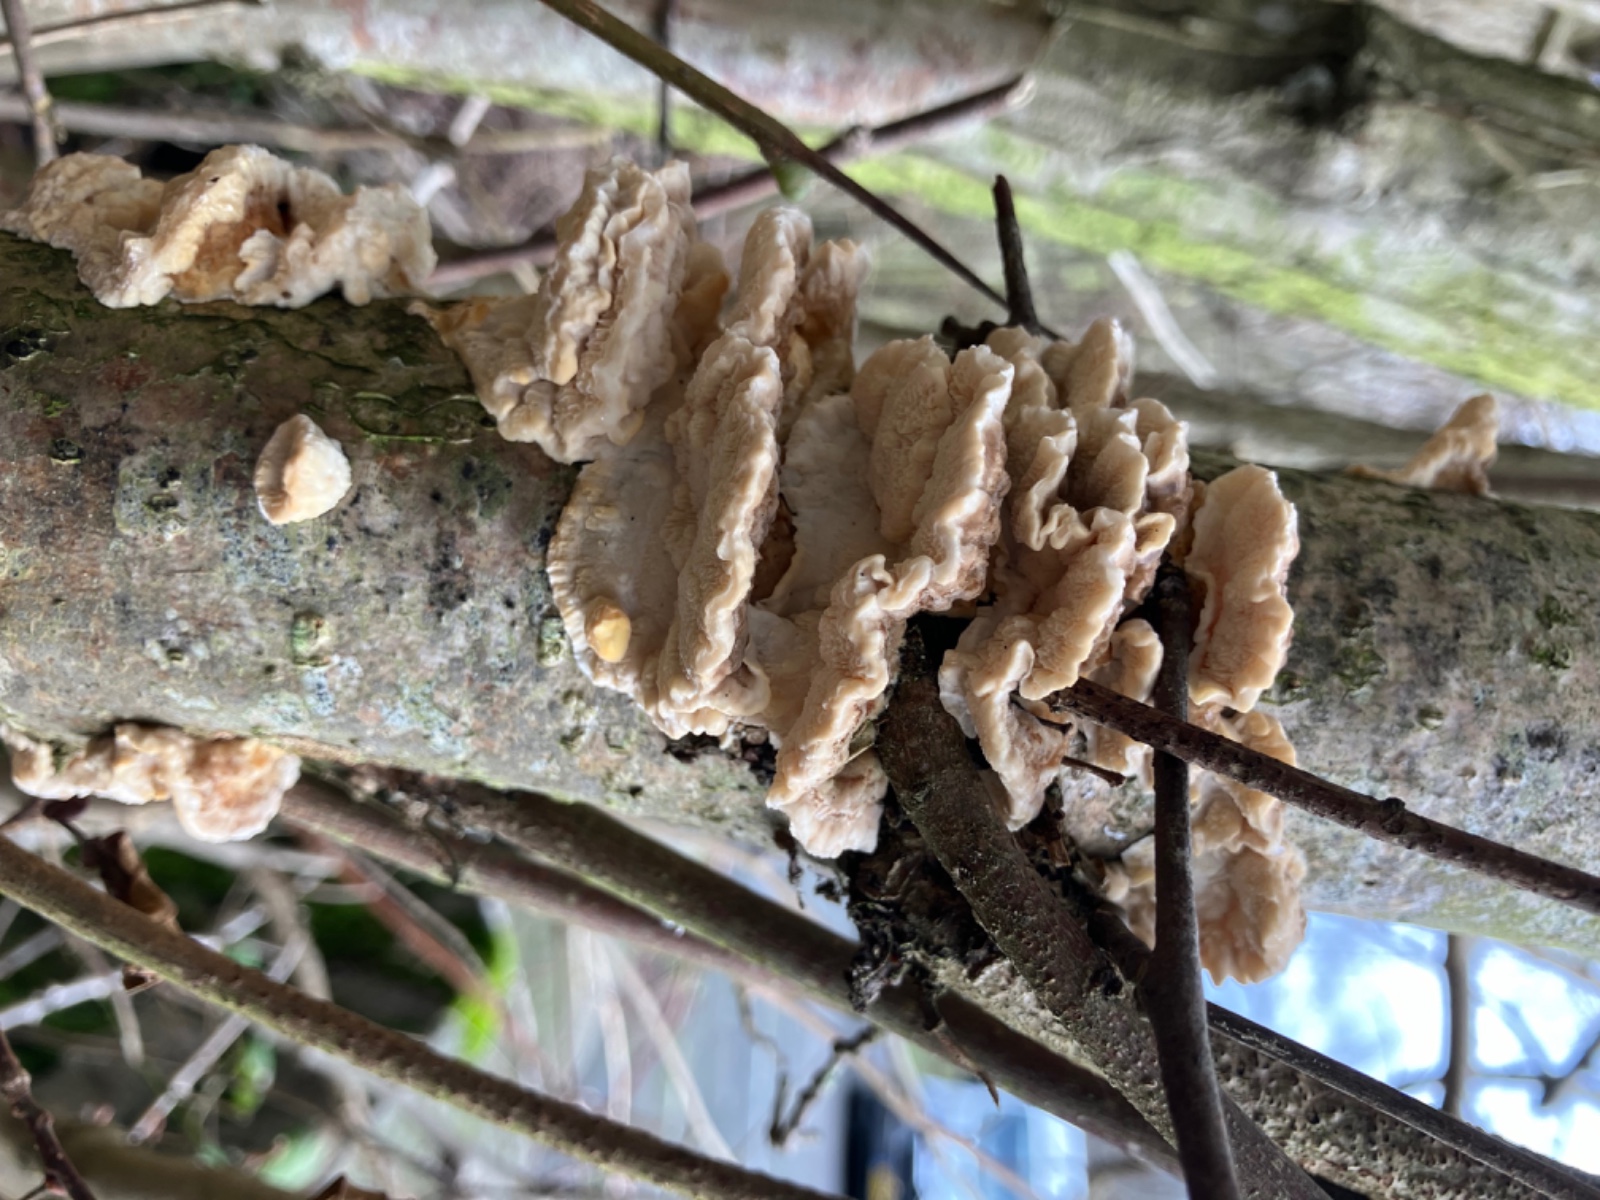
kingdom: Fungi
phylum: Basidiomycota
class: Agaricomycetes
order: Polyporales
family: Polyporaceae
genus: Trametes
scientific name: Trametes ochracea
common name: bæltet læderporesvamp
